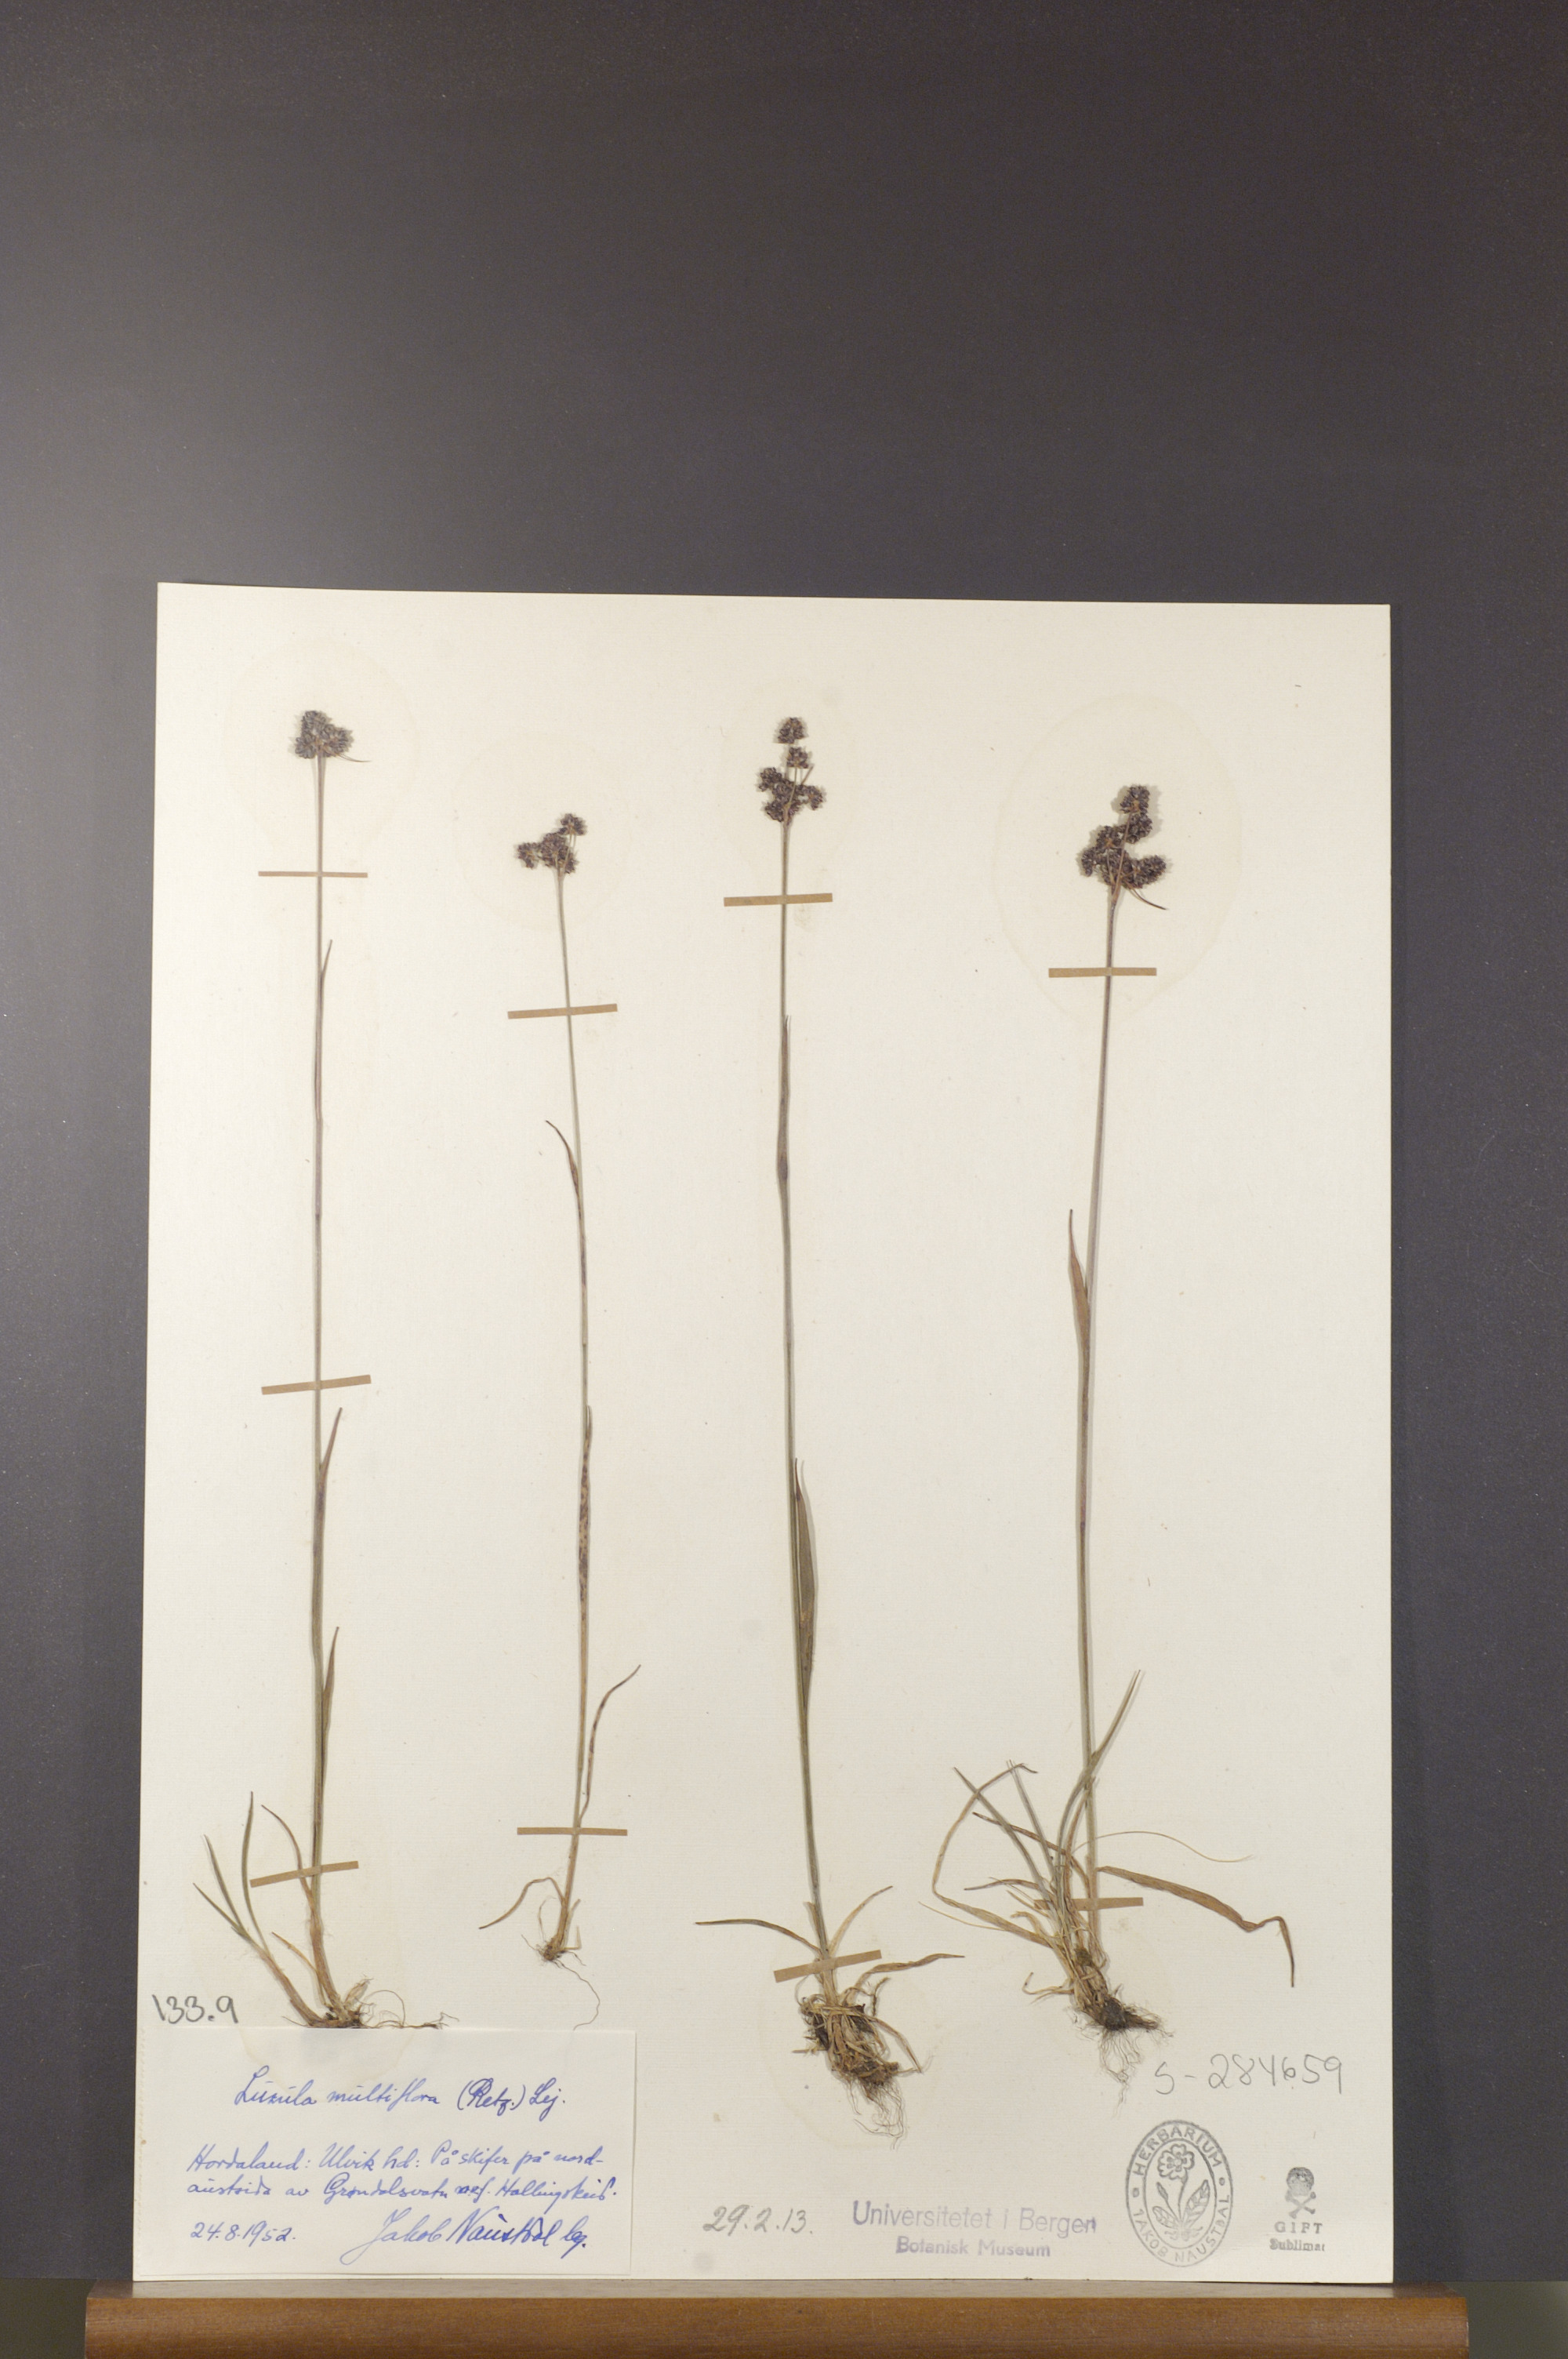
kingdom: Plantae
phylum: Tracheophyta
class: Liliopsida
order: Poales
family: Juncaceae
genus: Luzula
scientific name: Luzula multiflora
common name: Heath wood-rush
